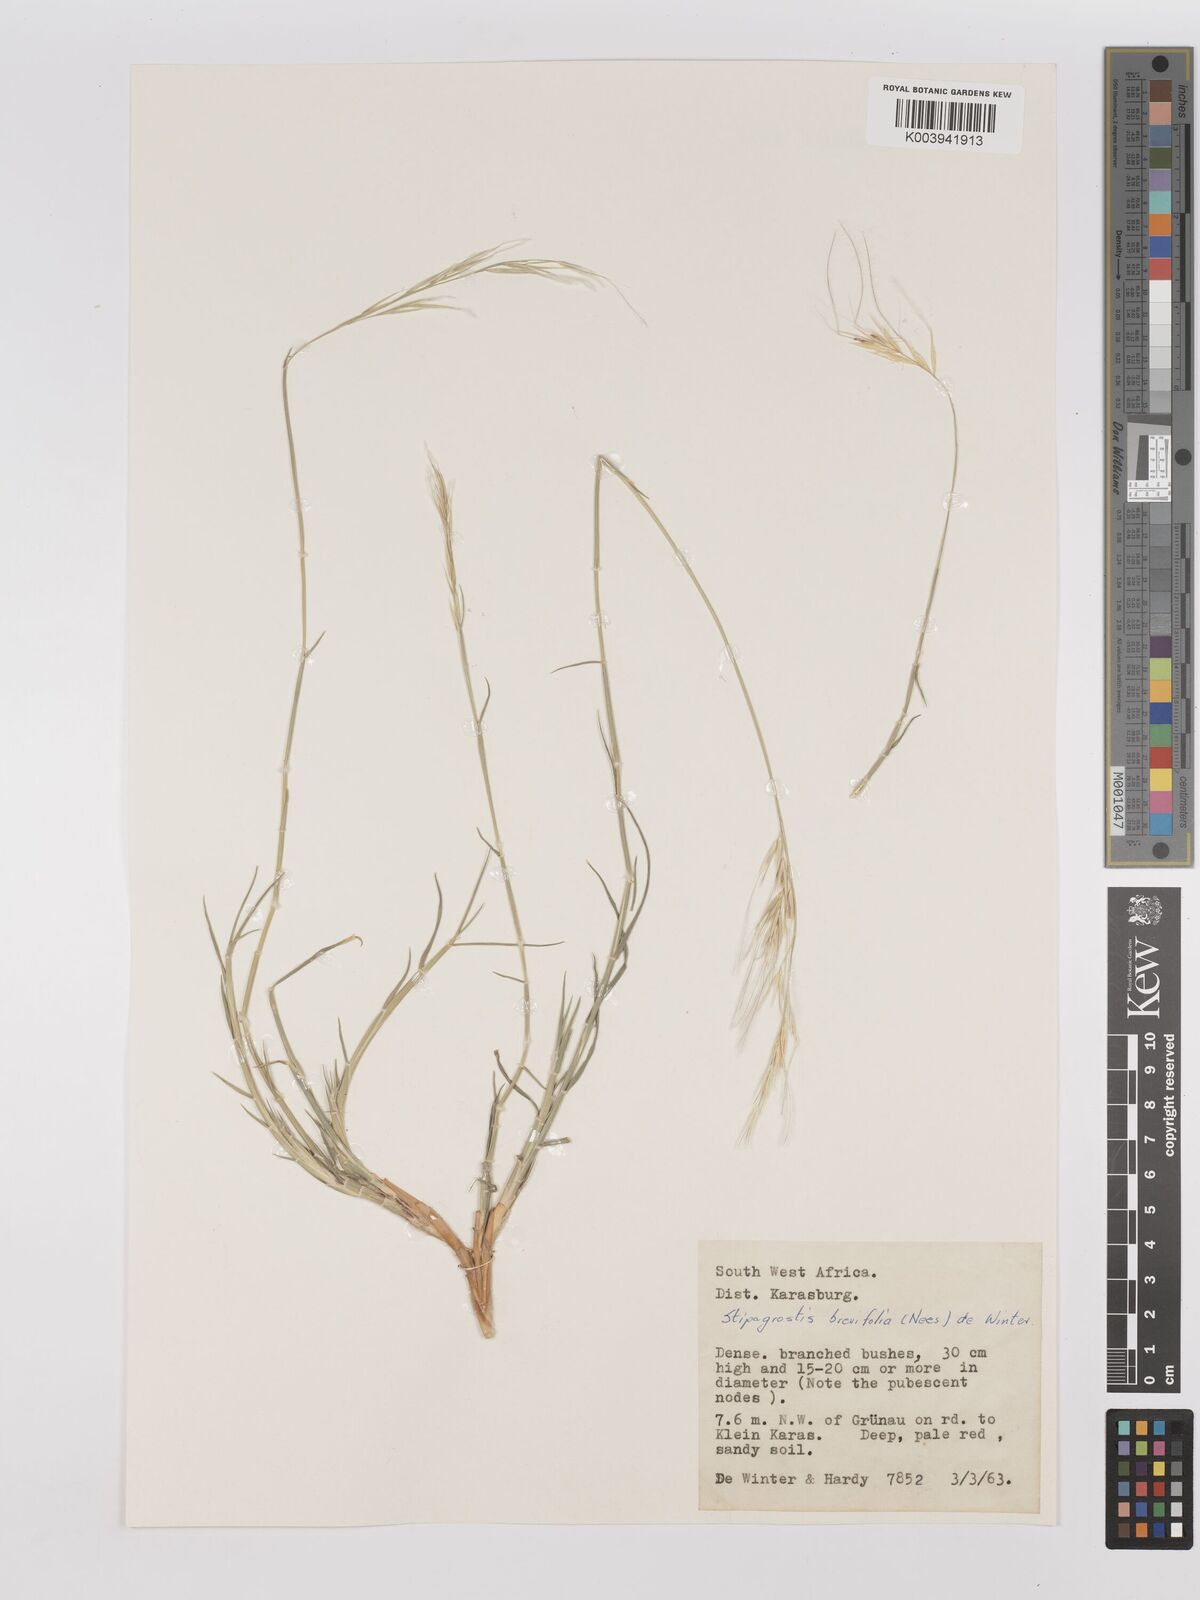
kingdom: Plantae
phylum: Tracheophyta
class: Liliopsida
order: Poales
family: Poaceae
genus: Stipagrostis
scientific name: Stipagrostis brevifolia
